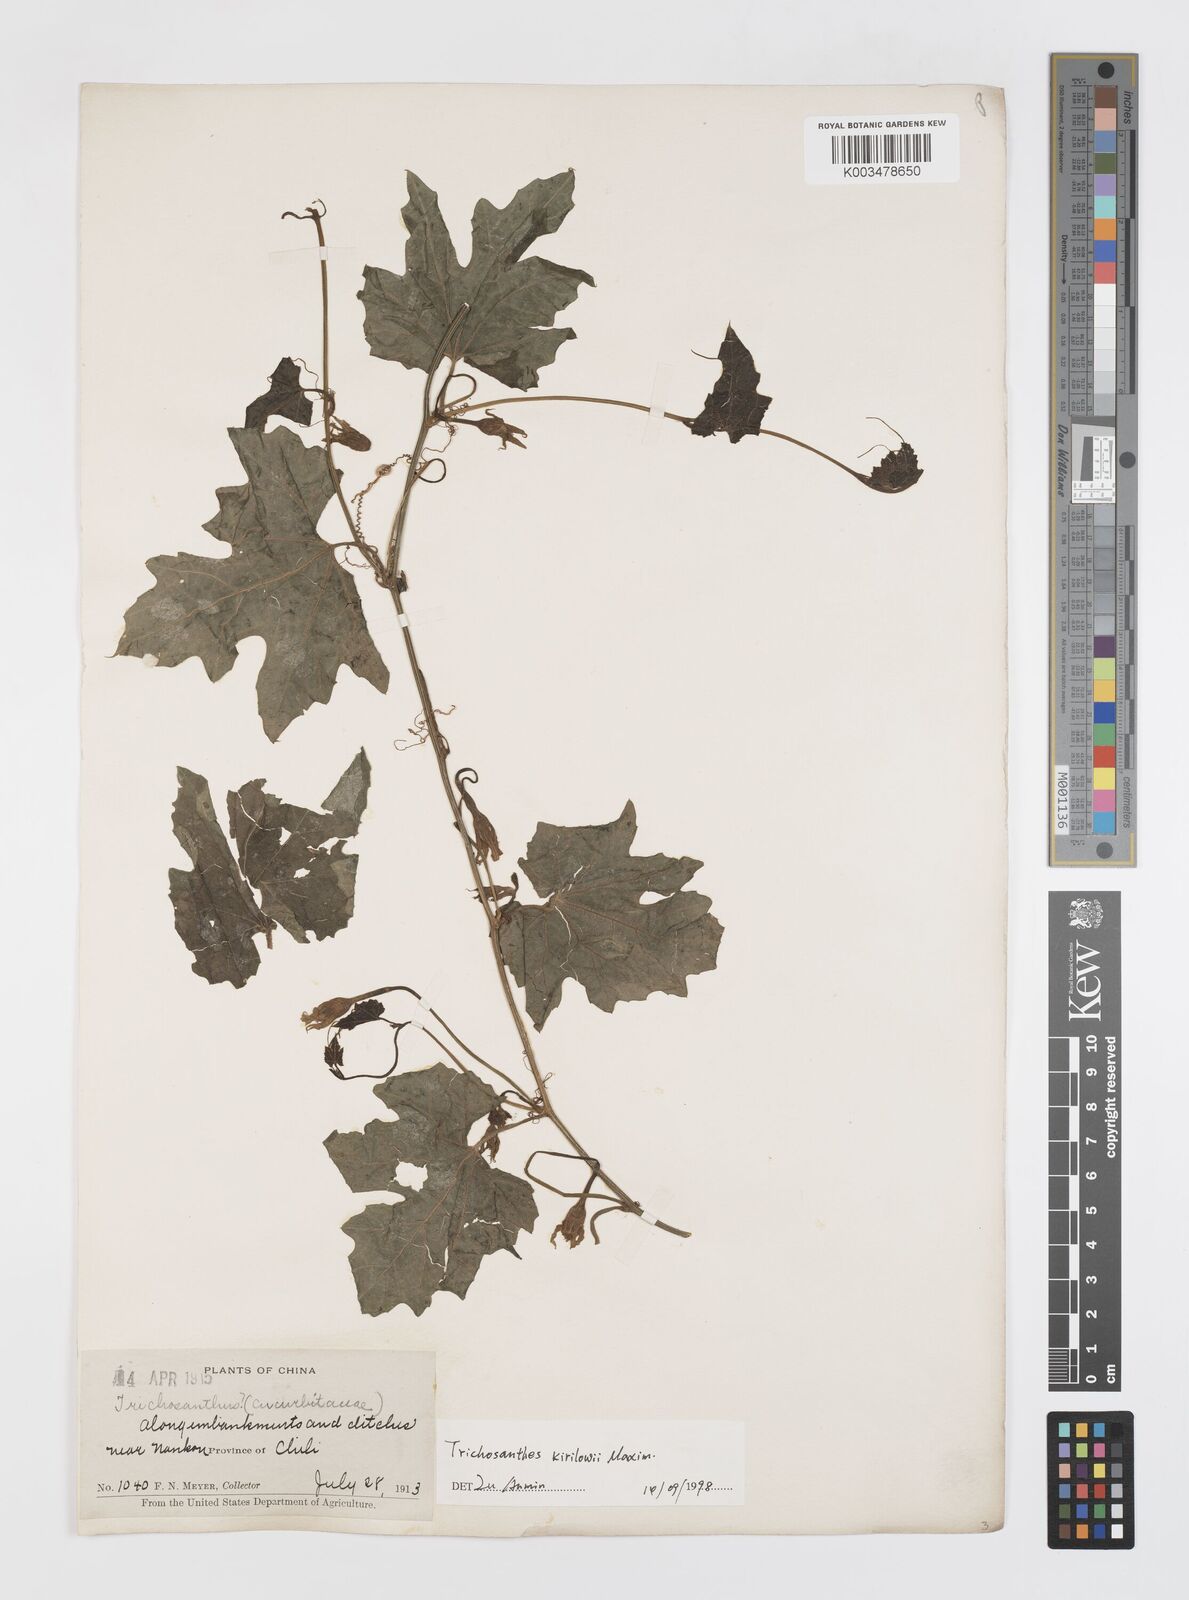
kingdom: Plantae
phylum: Tracheophyta
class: Magnoliopsida
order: Cucurbitales
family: Cucurbitaceae
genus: Trichosanthes
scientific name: Trichosanthes kirilowii
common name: Chinese-cucumber
